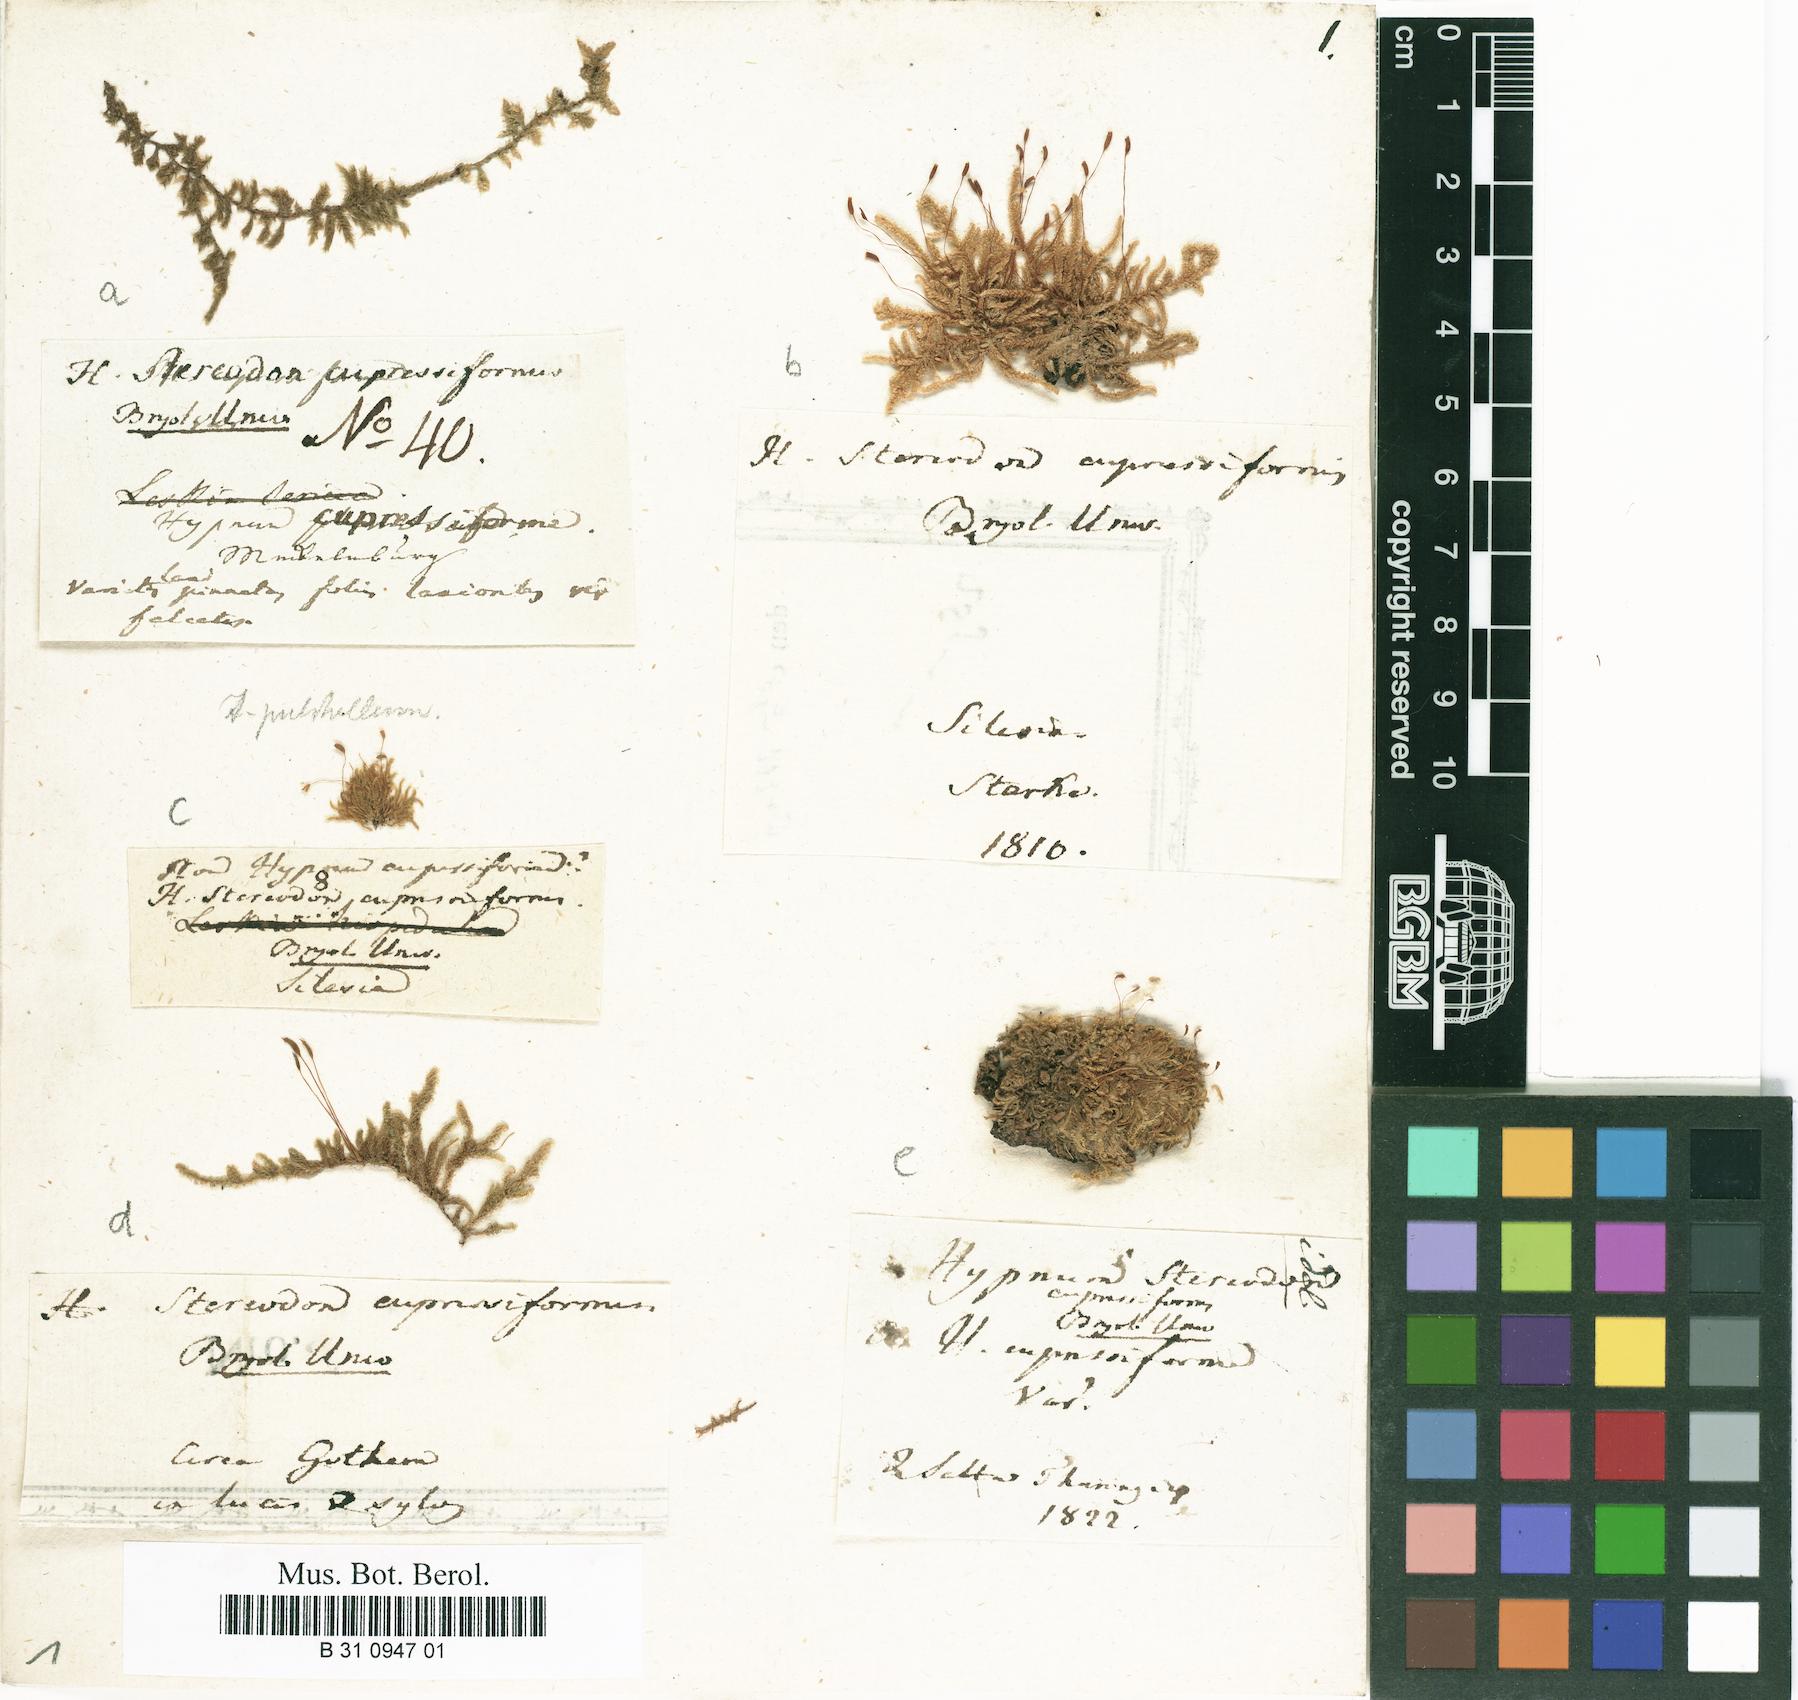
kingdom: Plantae
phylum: Bryophyta
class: Bryopsida
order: Hypnales
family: Hypnaceae
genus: Hypnum
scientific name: Hypnum cupressiforme
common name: Cypress-leaved plait-moss
